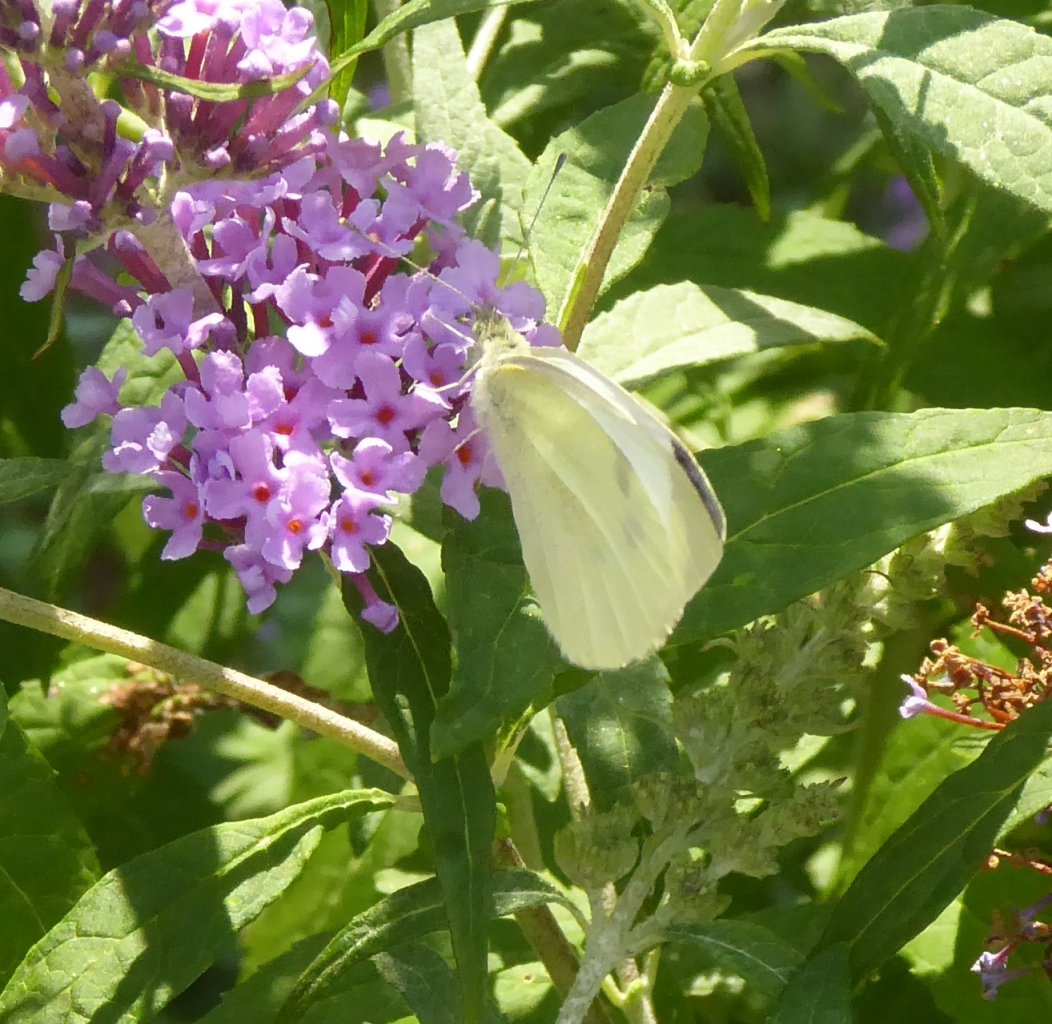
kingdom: Animalia
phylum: Arthropoda
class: Insecta
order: Lepidoptera
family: Pieridae
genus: Pieris
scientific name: Pieris rapae
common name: Cabbage White
